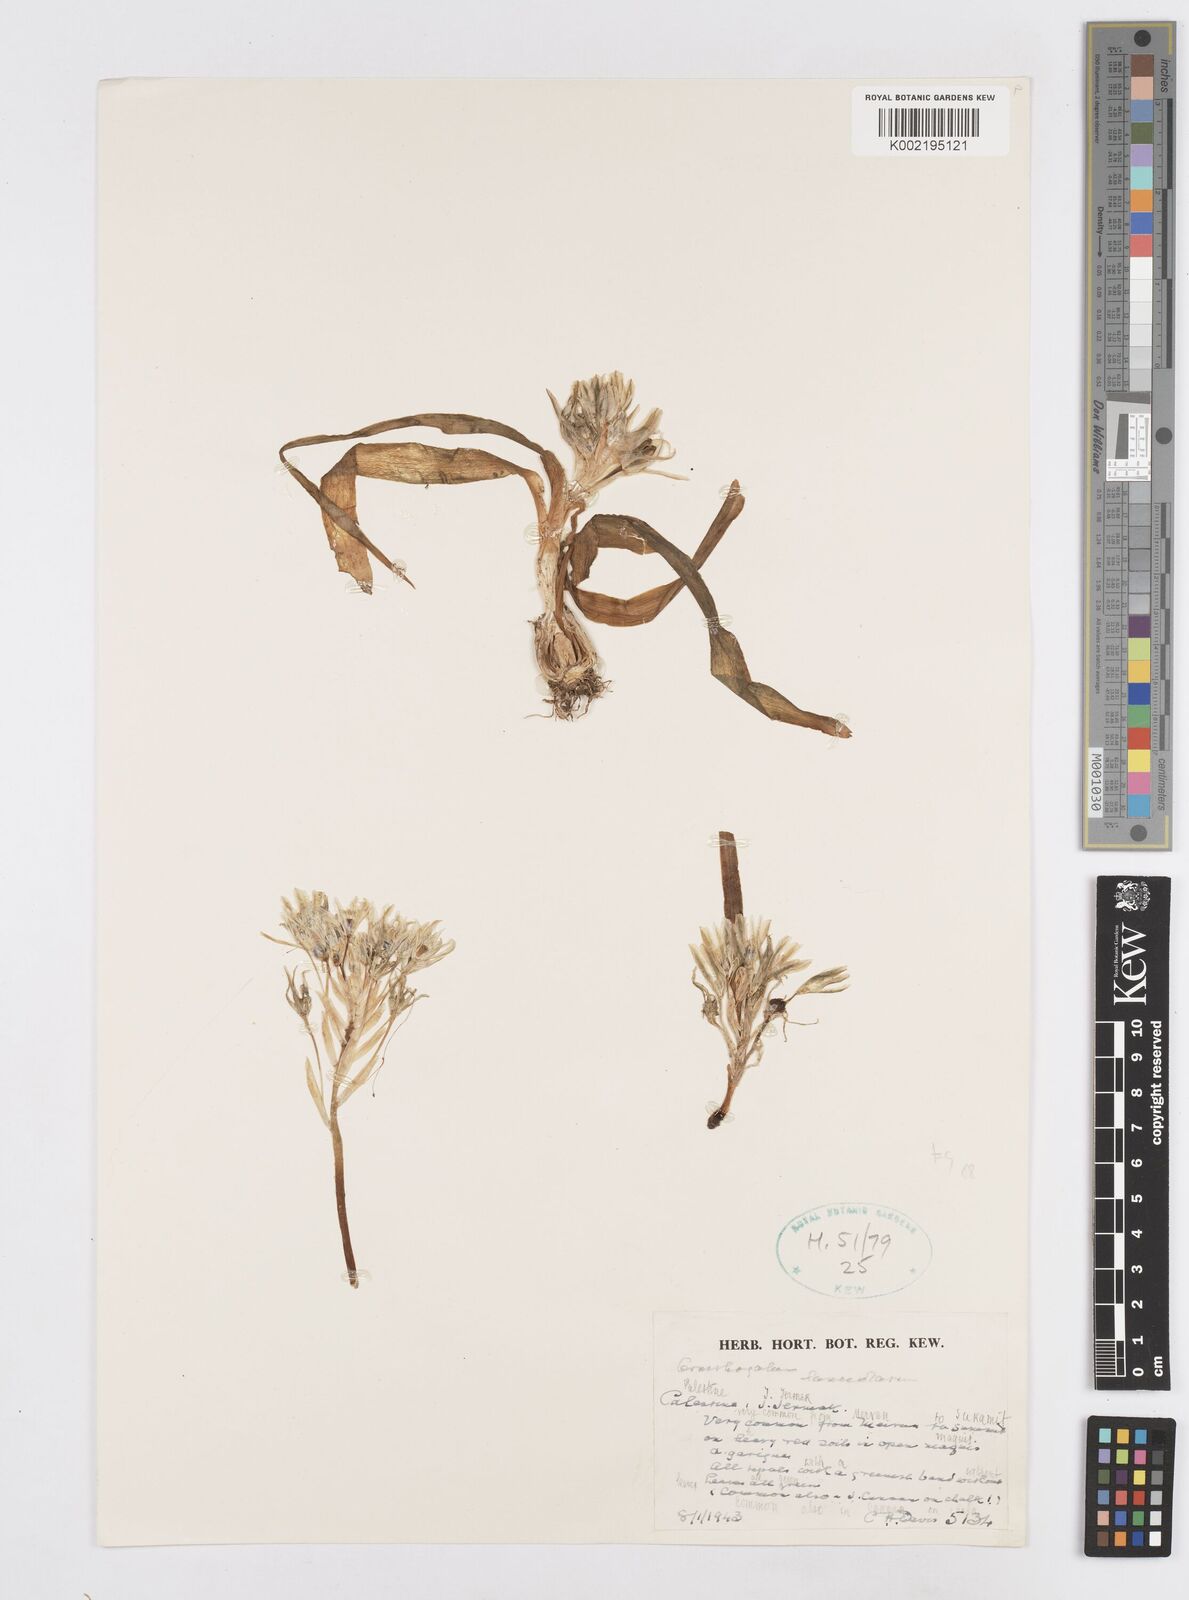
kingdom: Plantae
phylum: Tracheophyta
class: Liliopsida
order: Asparagales
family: Asparagaceae
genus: Ornithogalum
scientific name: Ornithogalum lanceolatum
